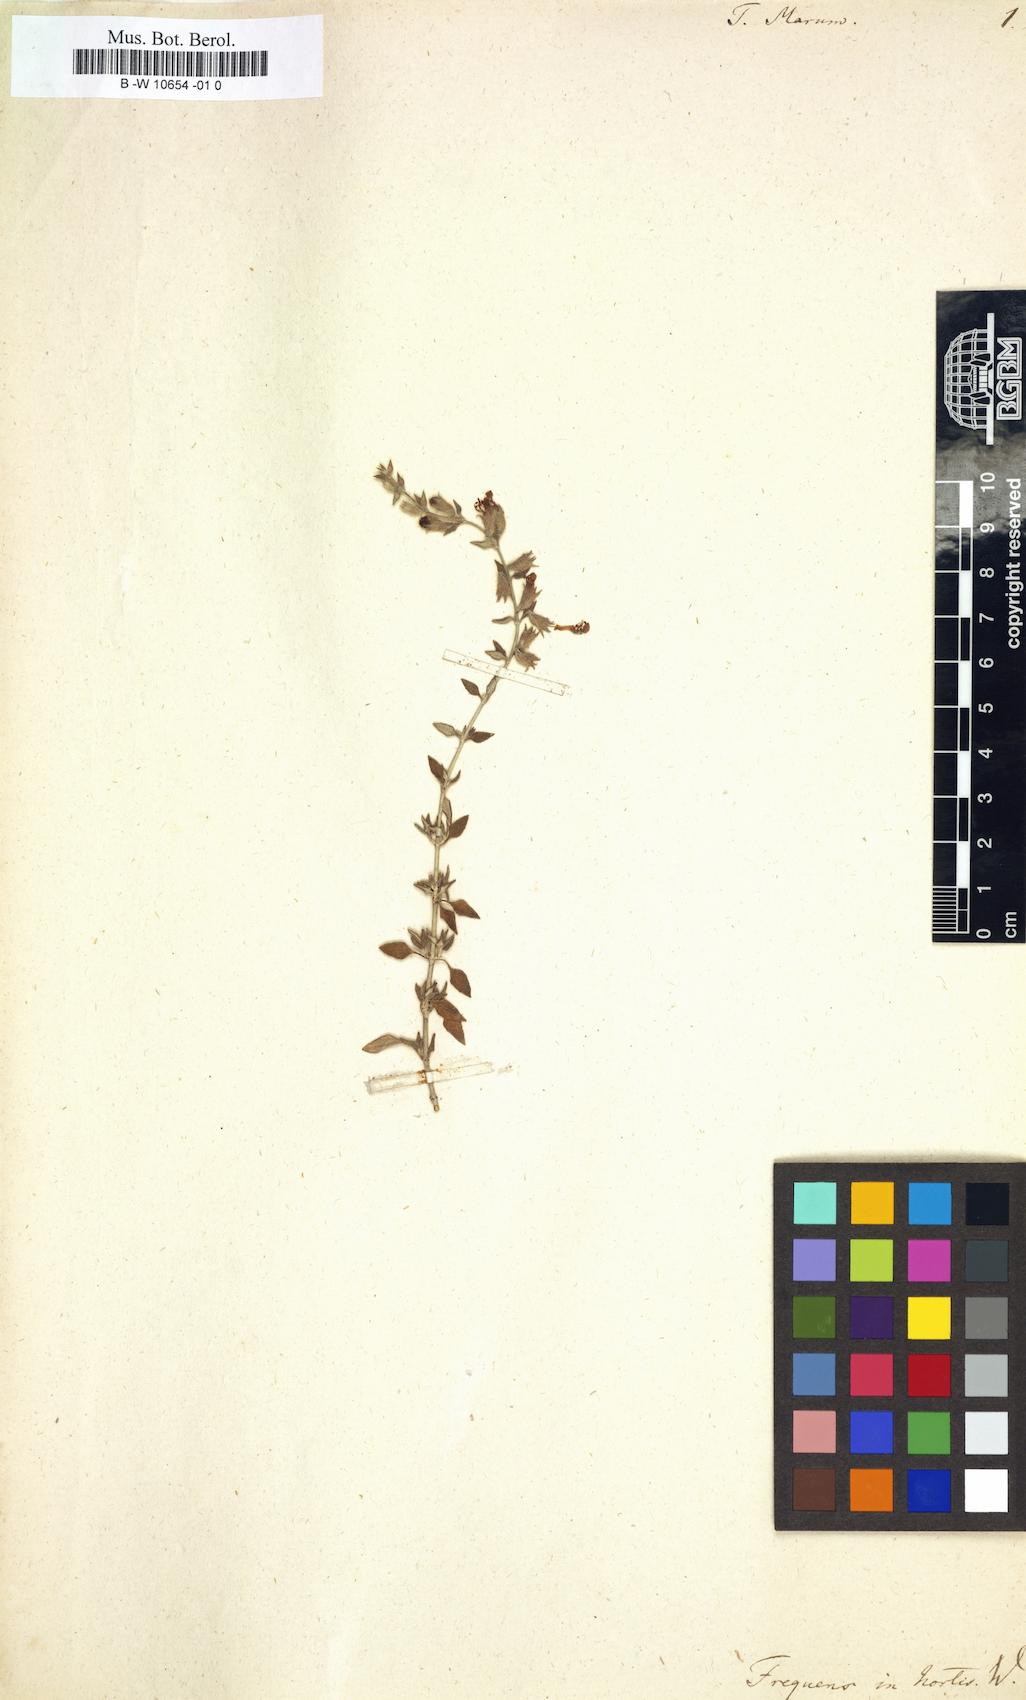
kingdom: Plantae
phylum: Tracheophyta
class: Magnoliopsida
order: Lamiales
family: Lamiaceae
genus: Teucrium
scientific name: Teucrium marum
